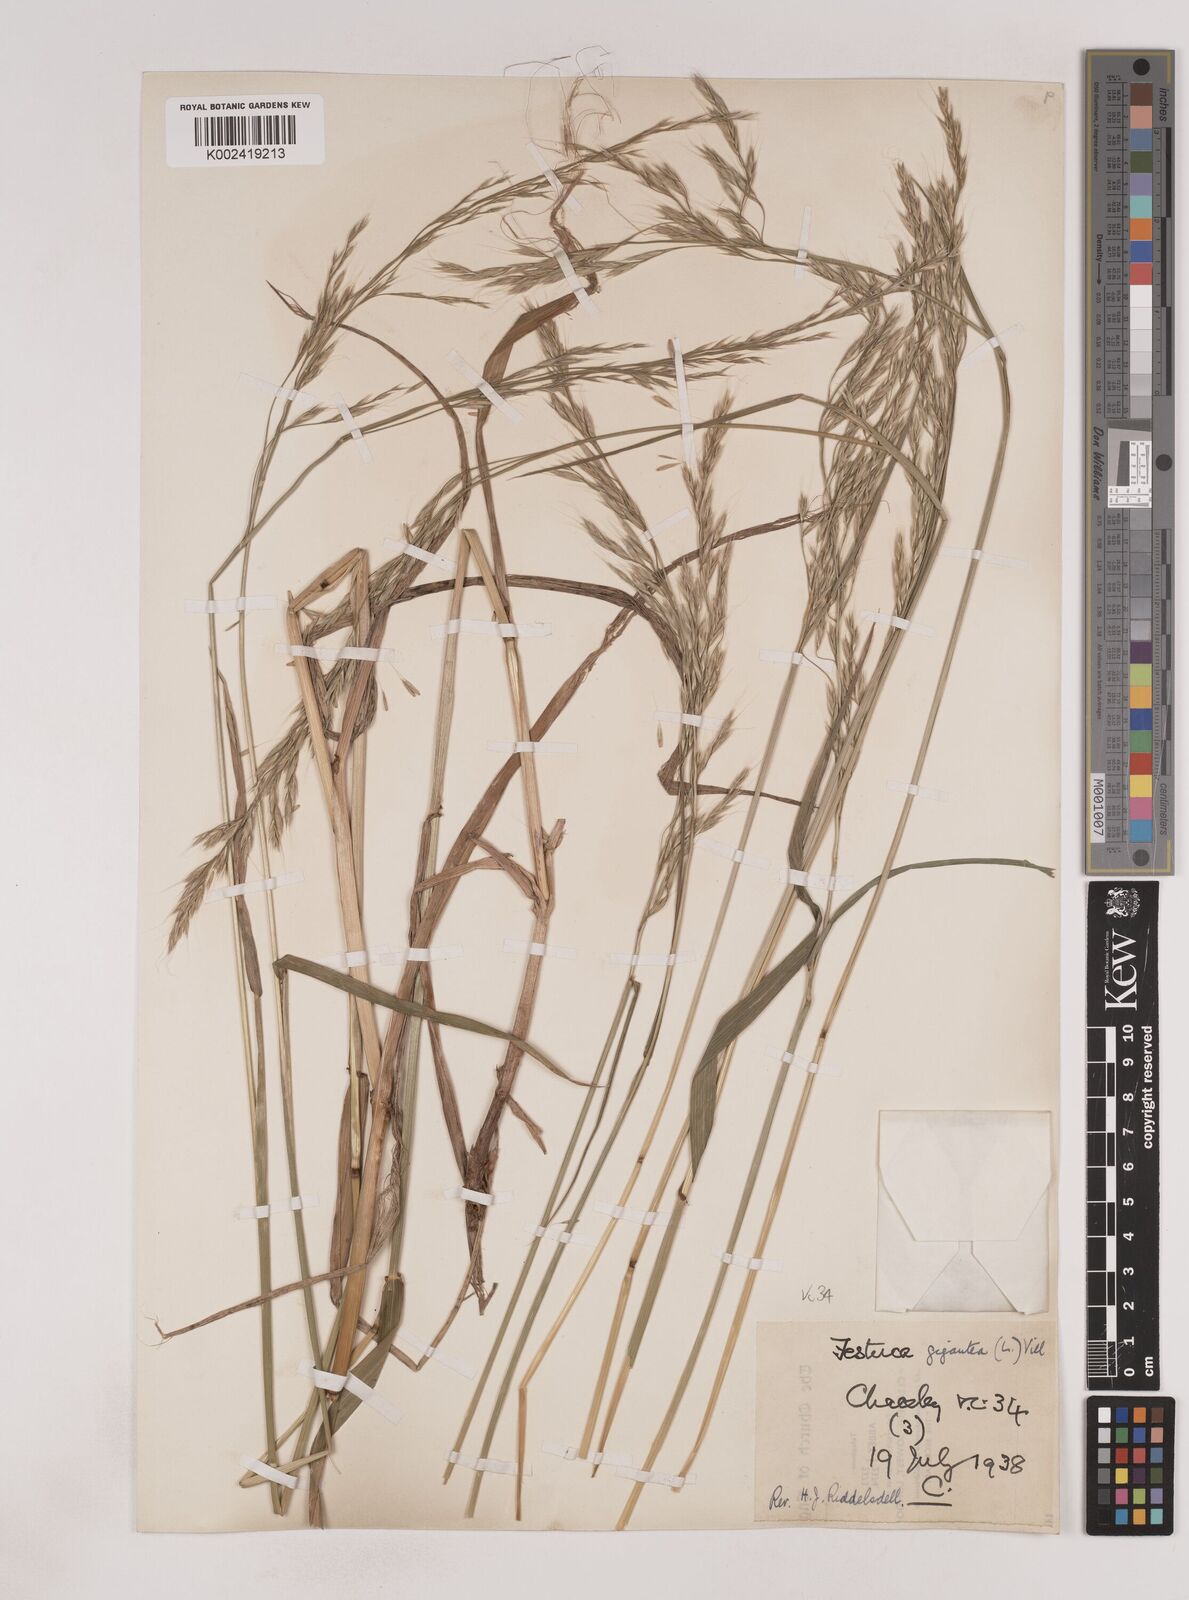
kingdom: Plantae
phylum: Tracheophyta
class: Liliopsida
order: Poales
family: Poaceae
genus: Lolium
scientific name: Lolium giganteum
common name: Giant fescue
